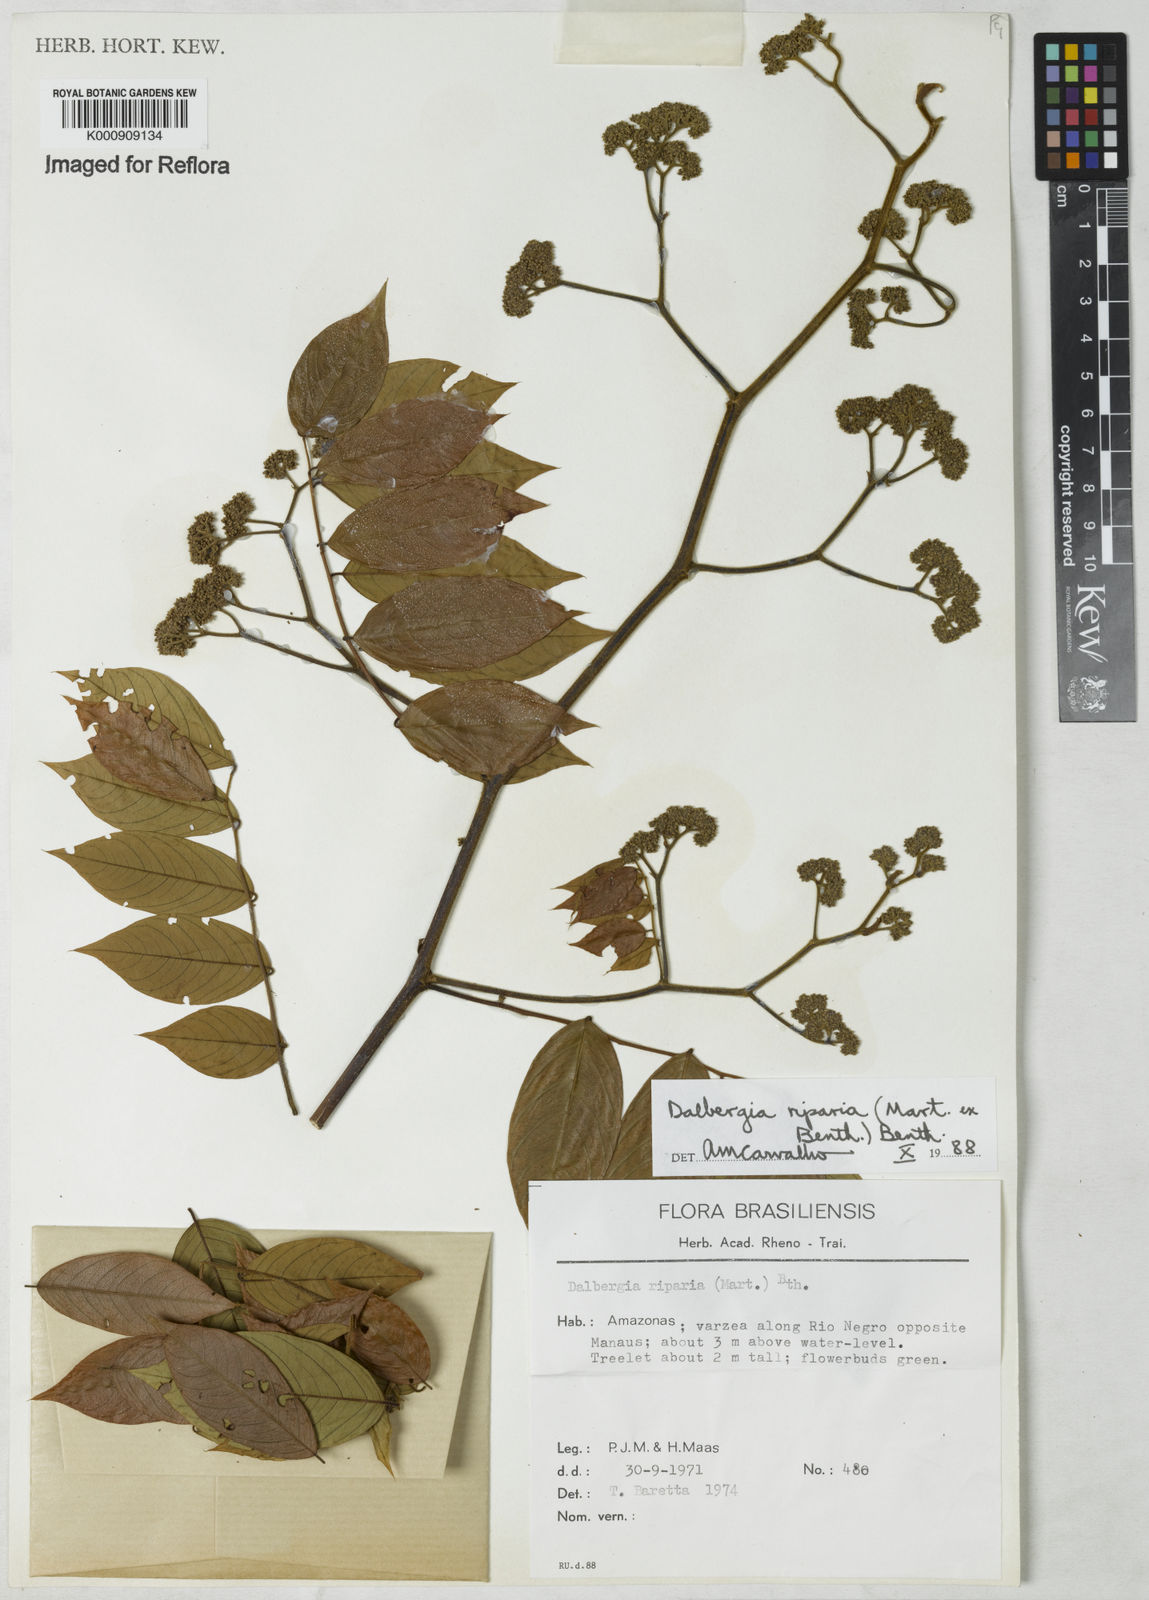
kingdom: Plantae
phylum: Tracheophyta
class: Magnoliopsida
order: Fabales
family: Fabaceae
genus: Dalbergia
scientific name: Dalbergia riparia
